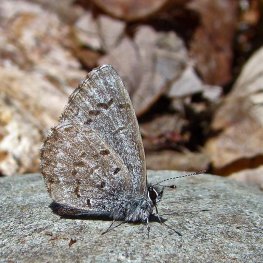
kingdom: Animalia
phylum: Arthropoda
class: Insecta
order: Lepidoptera
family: Lycaenidae
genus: Celastrina
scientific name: Celastrina lucia
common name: Northern Spring Azure
